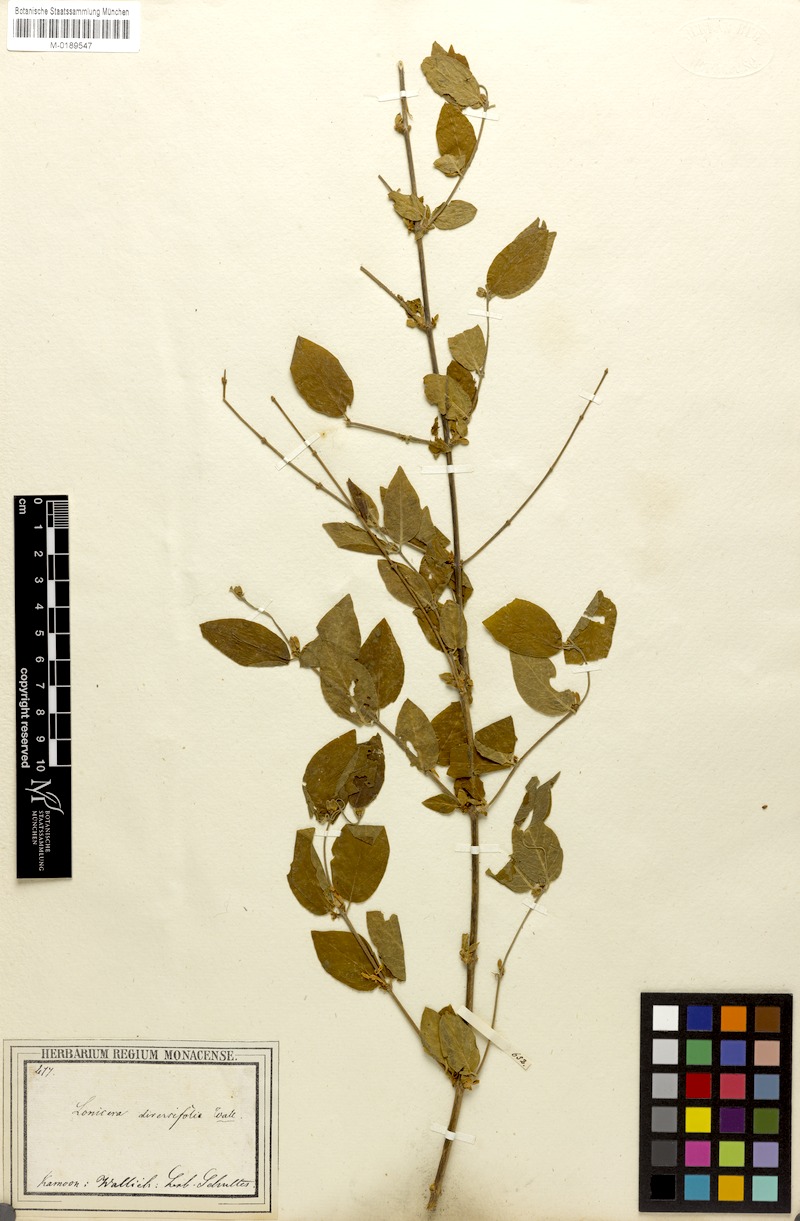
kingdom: Plantae
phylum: Tracheophyta
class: Magnoliopsida
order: Dipsacales
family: Caprifoliaceae
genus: Lonicera
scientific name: Lonicera quinquelocularis
